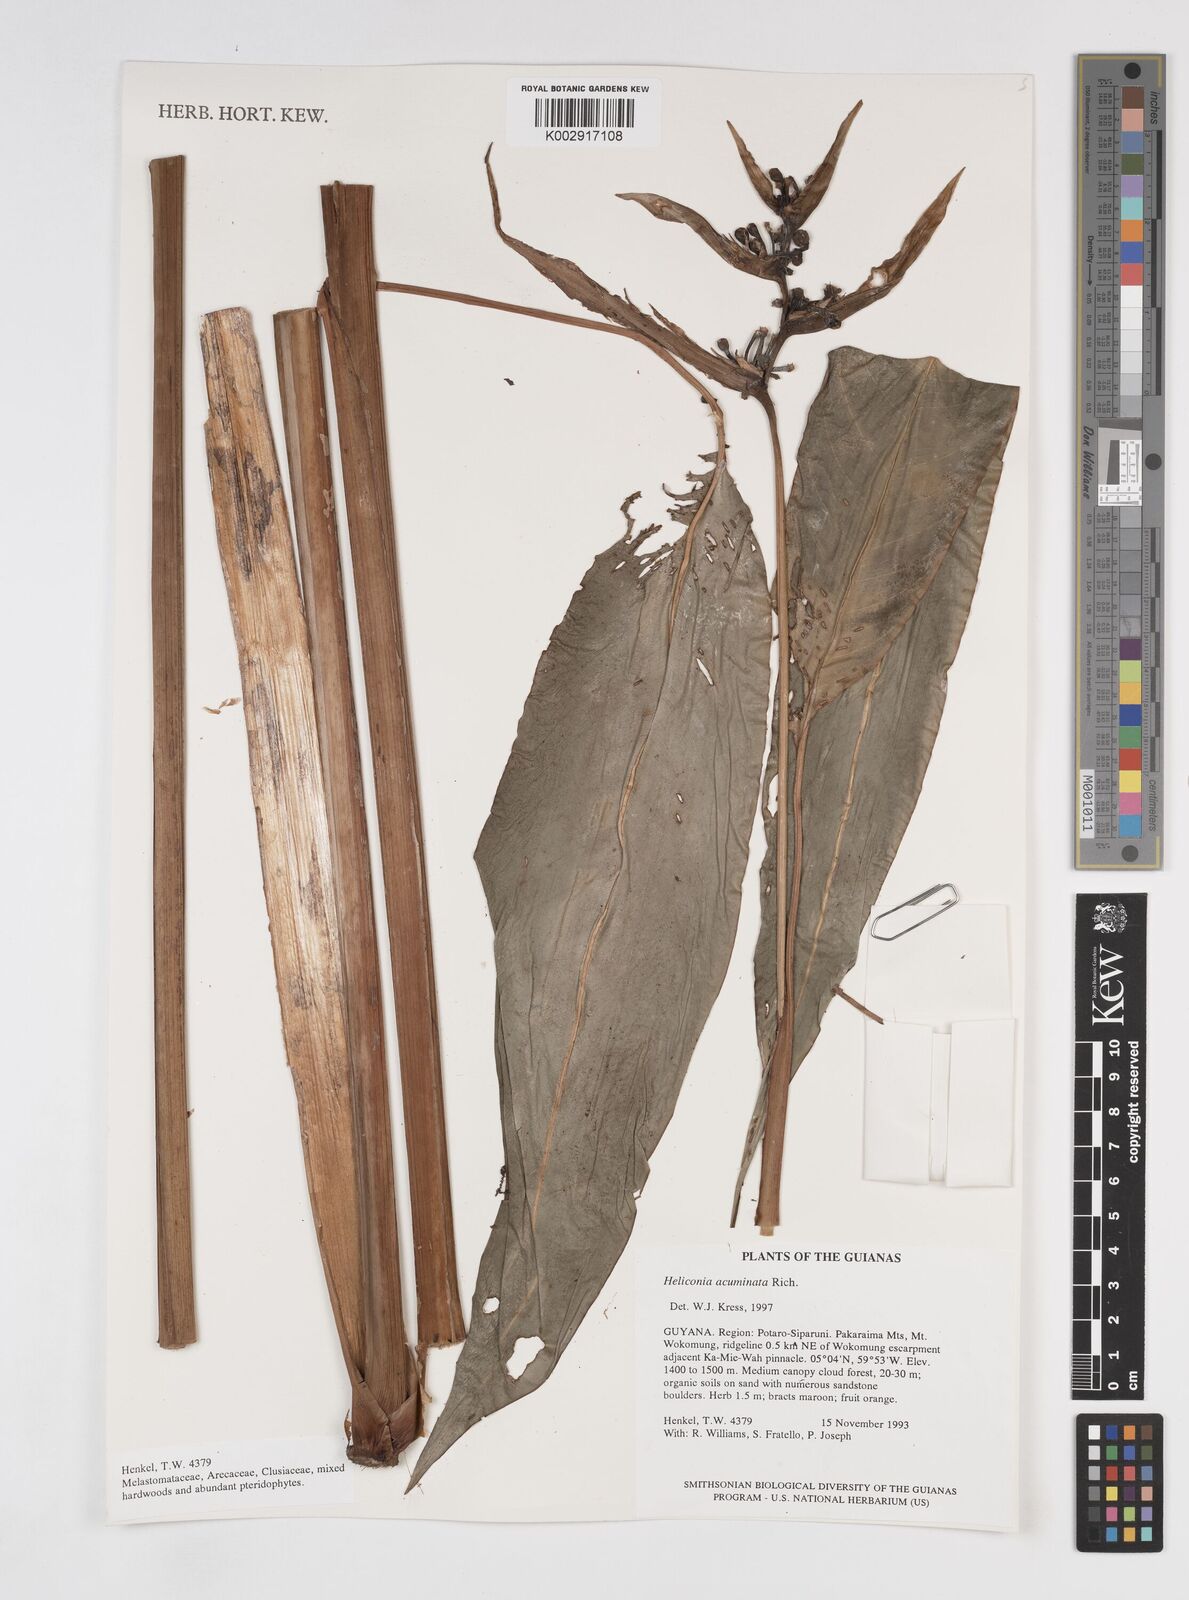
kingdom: Plantae
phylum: Tracheophyta
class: Liliopsida
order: Zingiberales
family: Heliconiaceae
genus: Heliconia
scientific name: Heliconia acuminata
